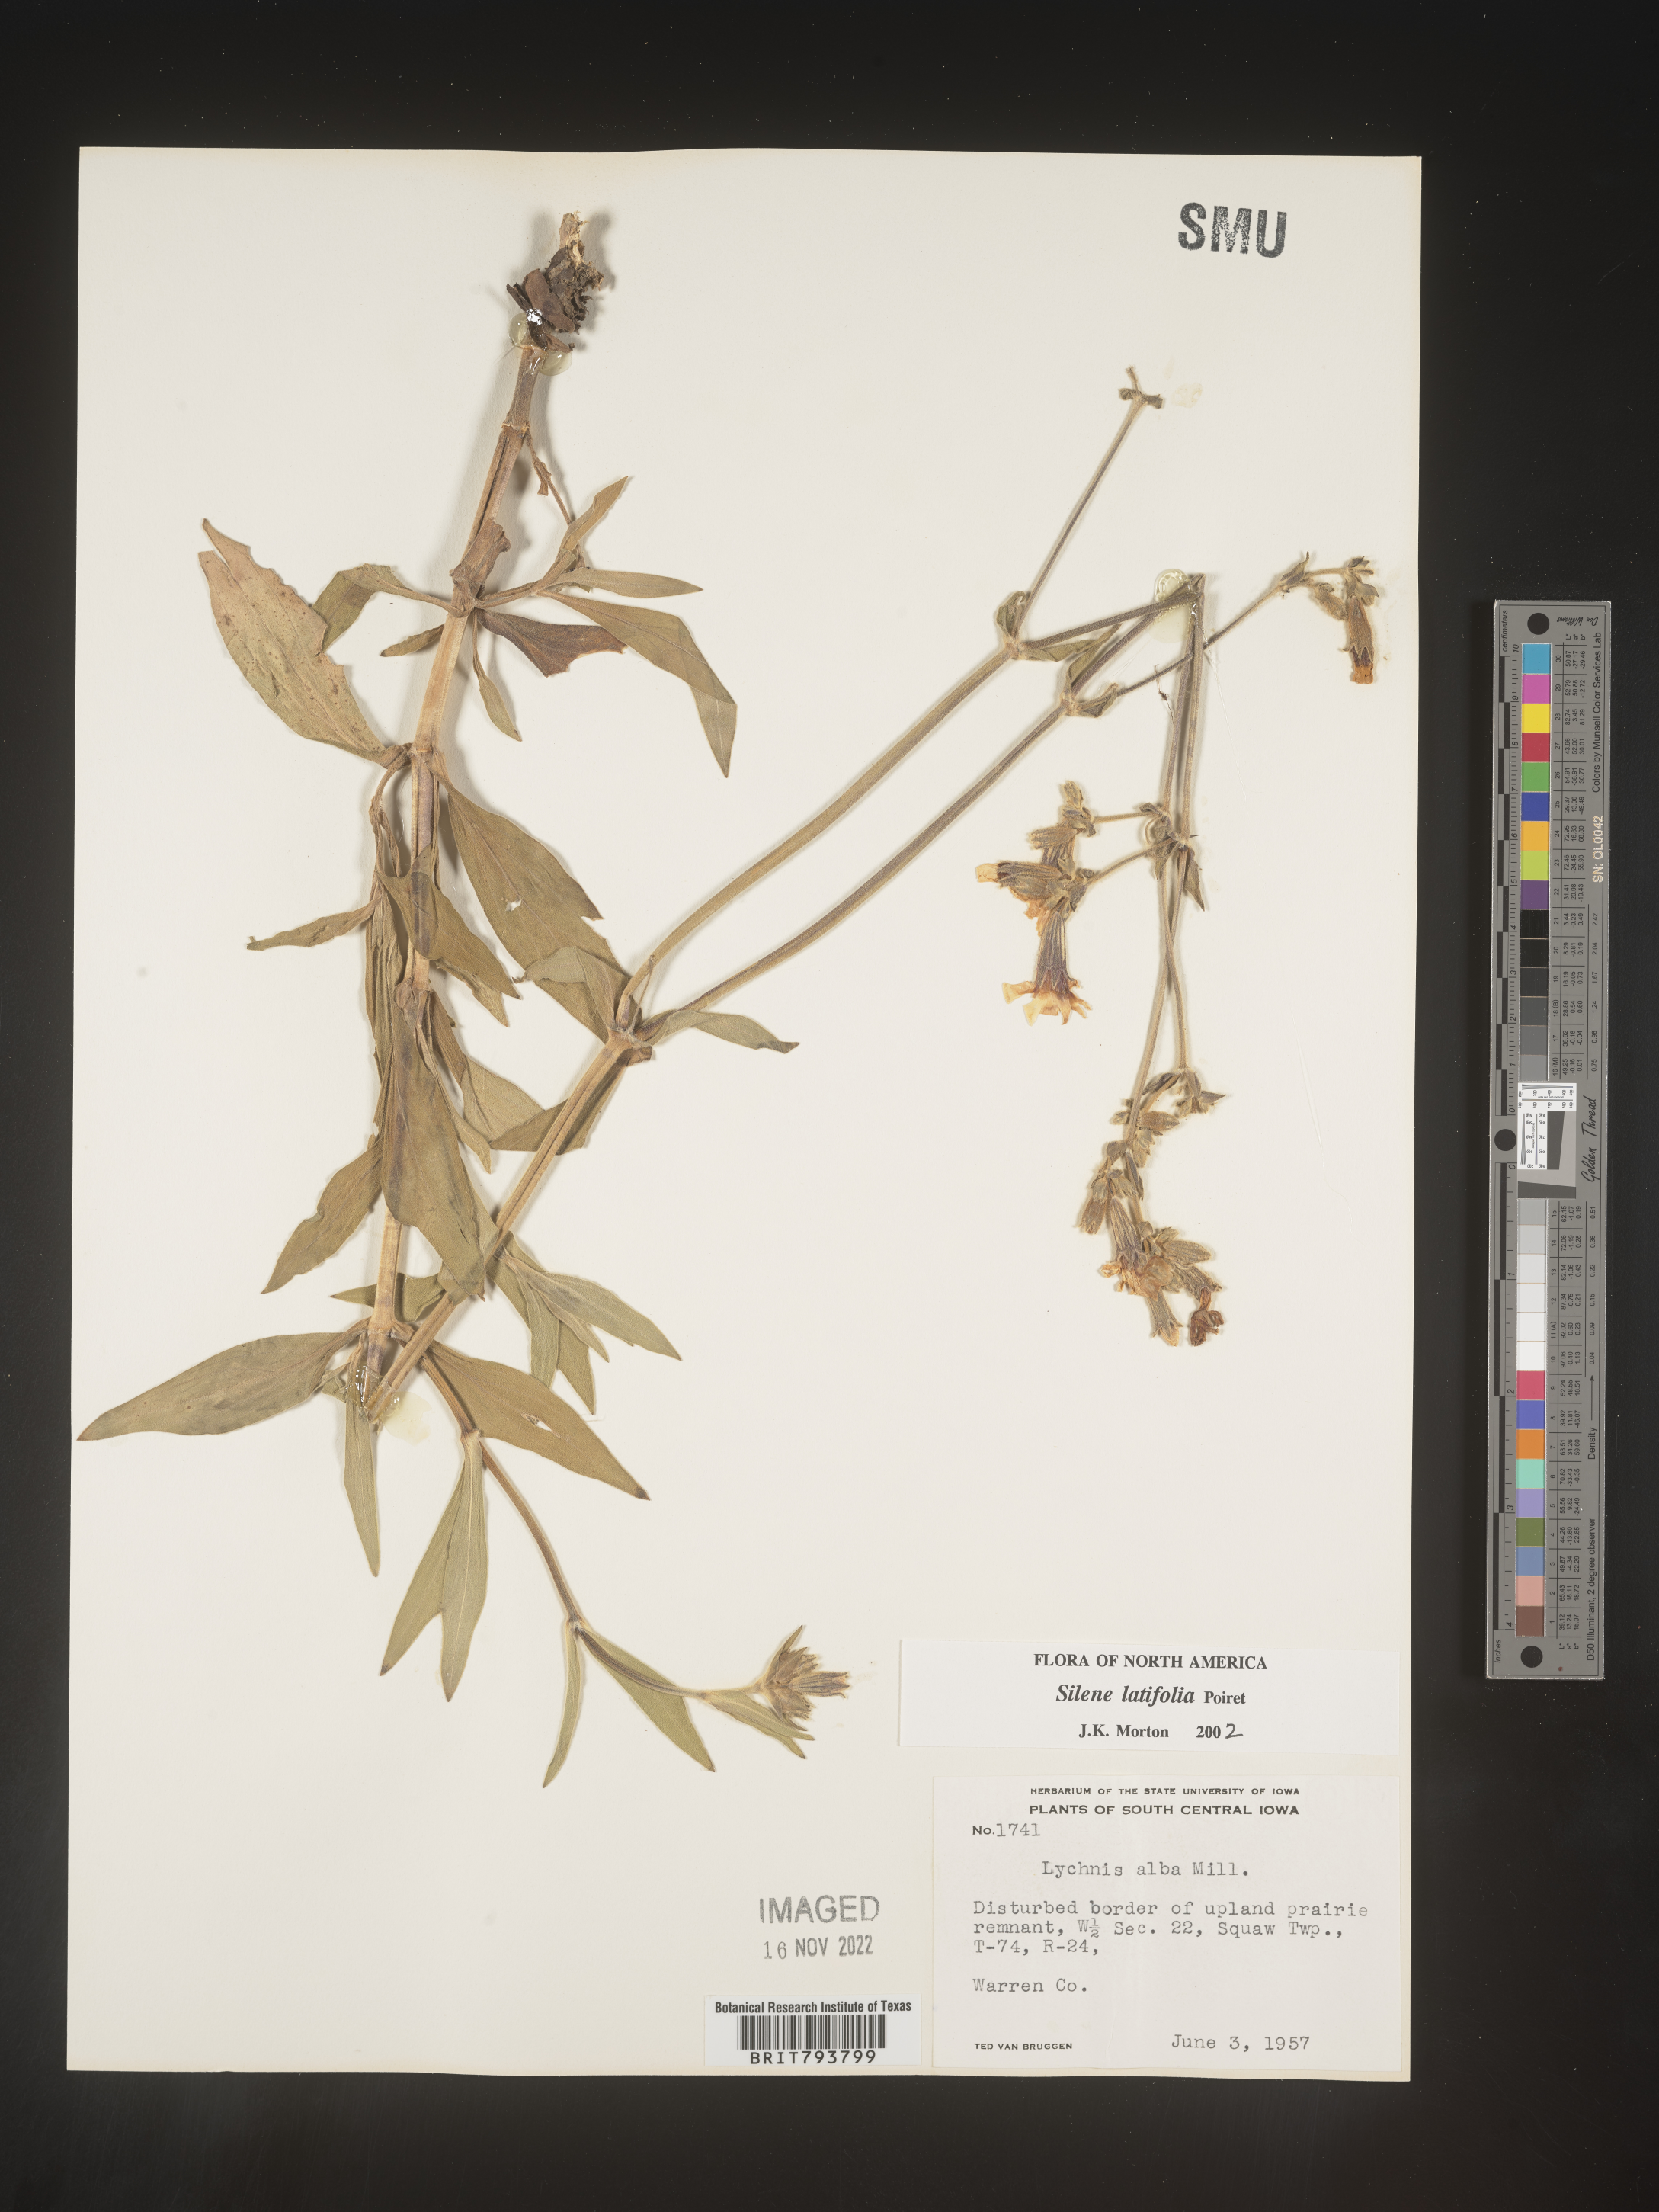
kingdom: Plantae
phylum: Tracheophyta
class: Magnoliopsida
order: Caryophyllales
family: Caryophyllaceae
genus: Silene
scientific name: Silene latifolia
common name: White campion
